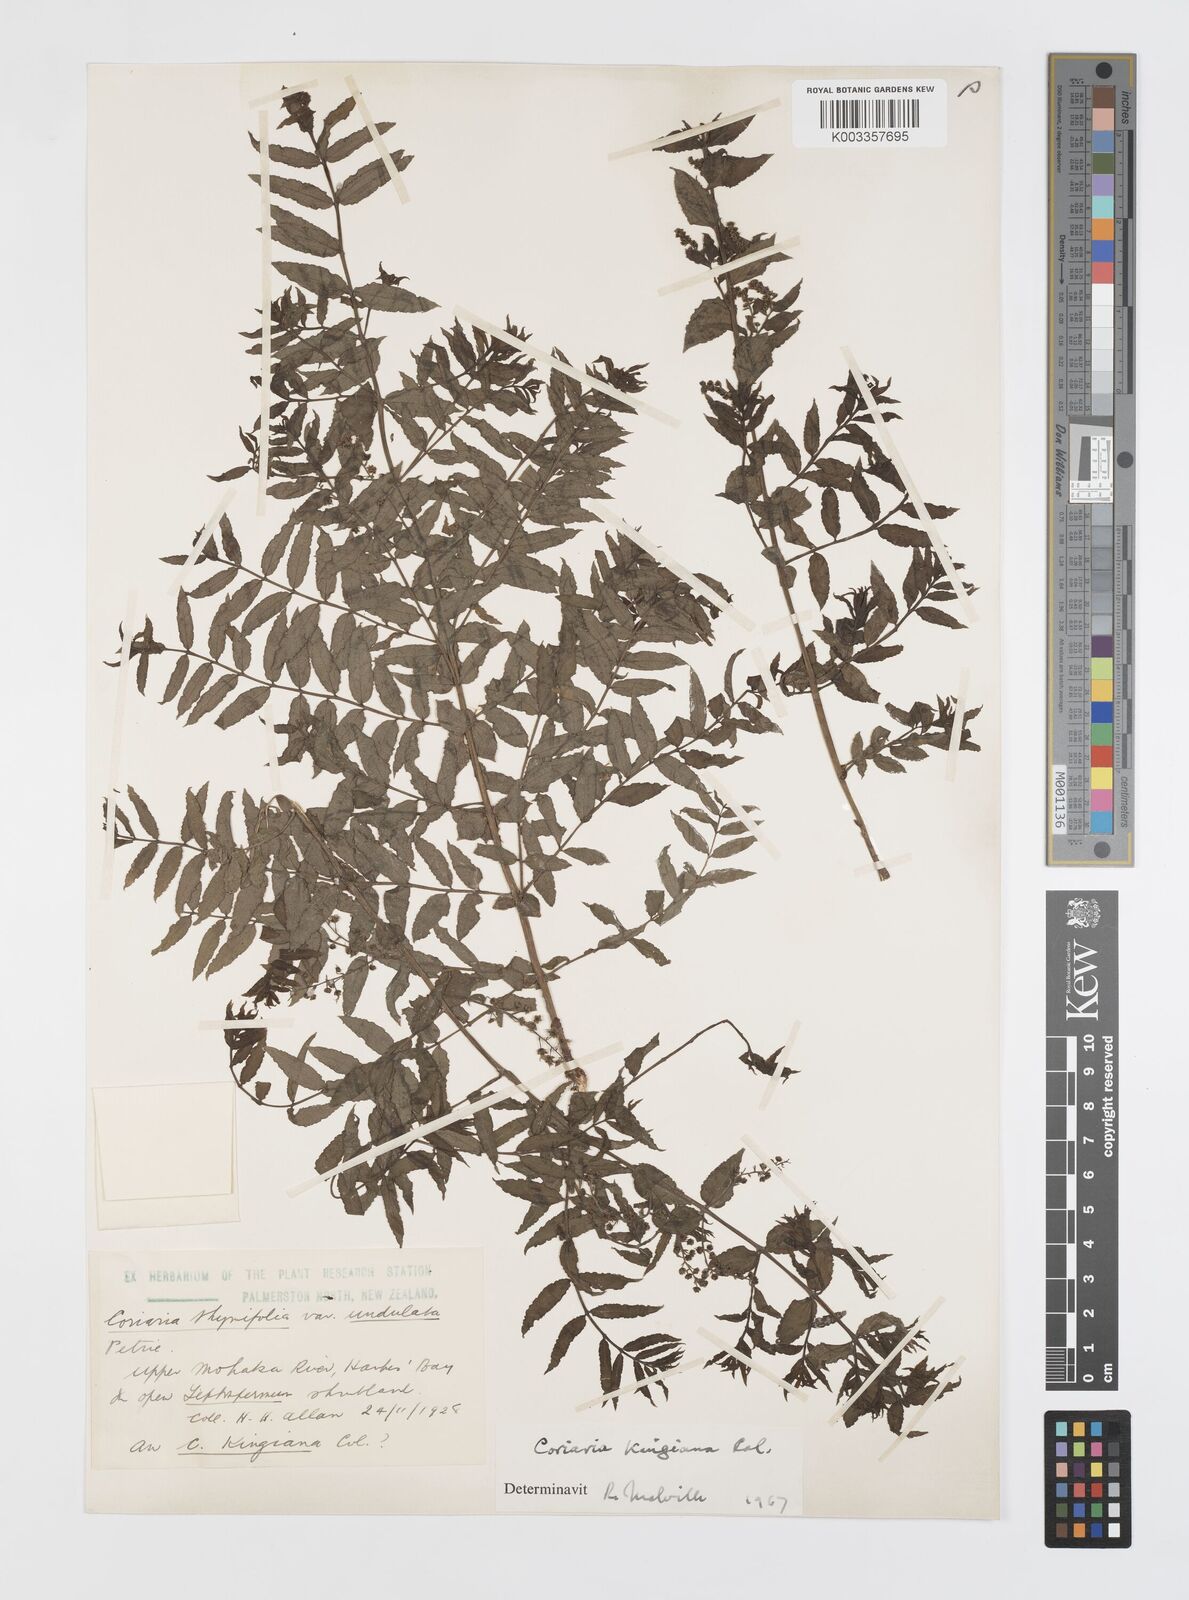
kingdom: Plantae
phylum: Tracheophyta
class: Magnoliopsida
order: Cucurbitales
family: Coriariaceae
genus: Coriaria
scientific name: Coriaria kingiana
